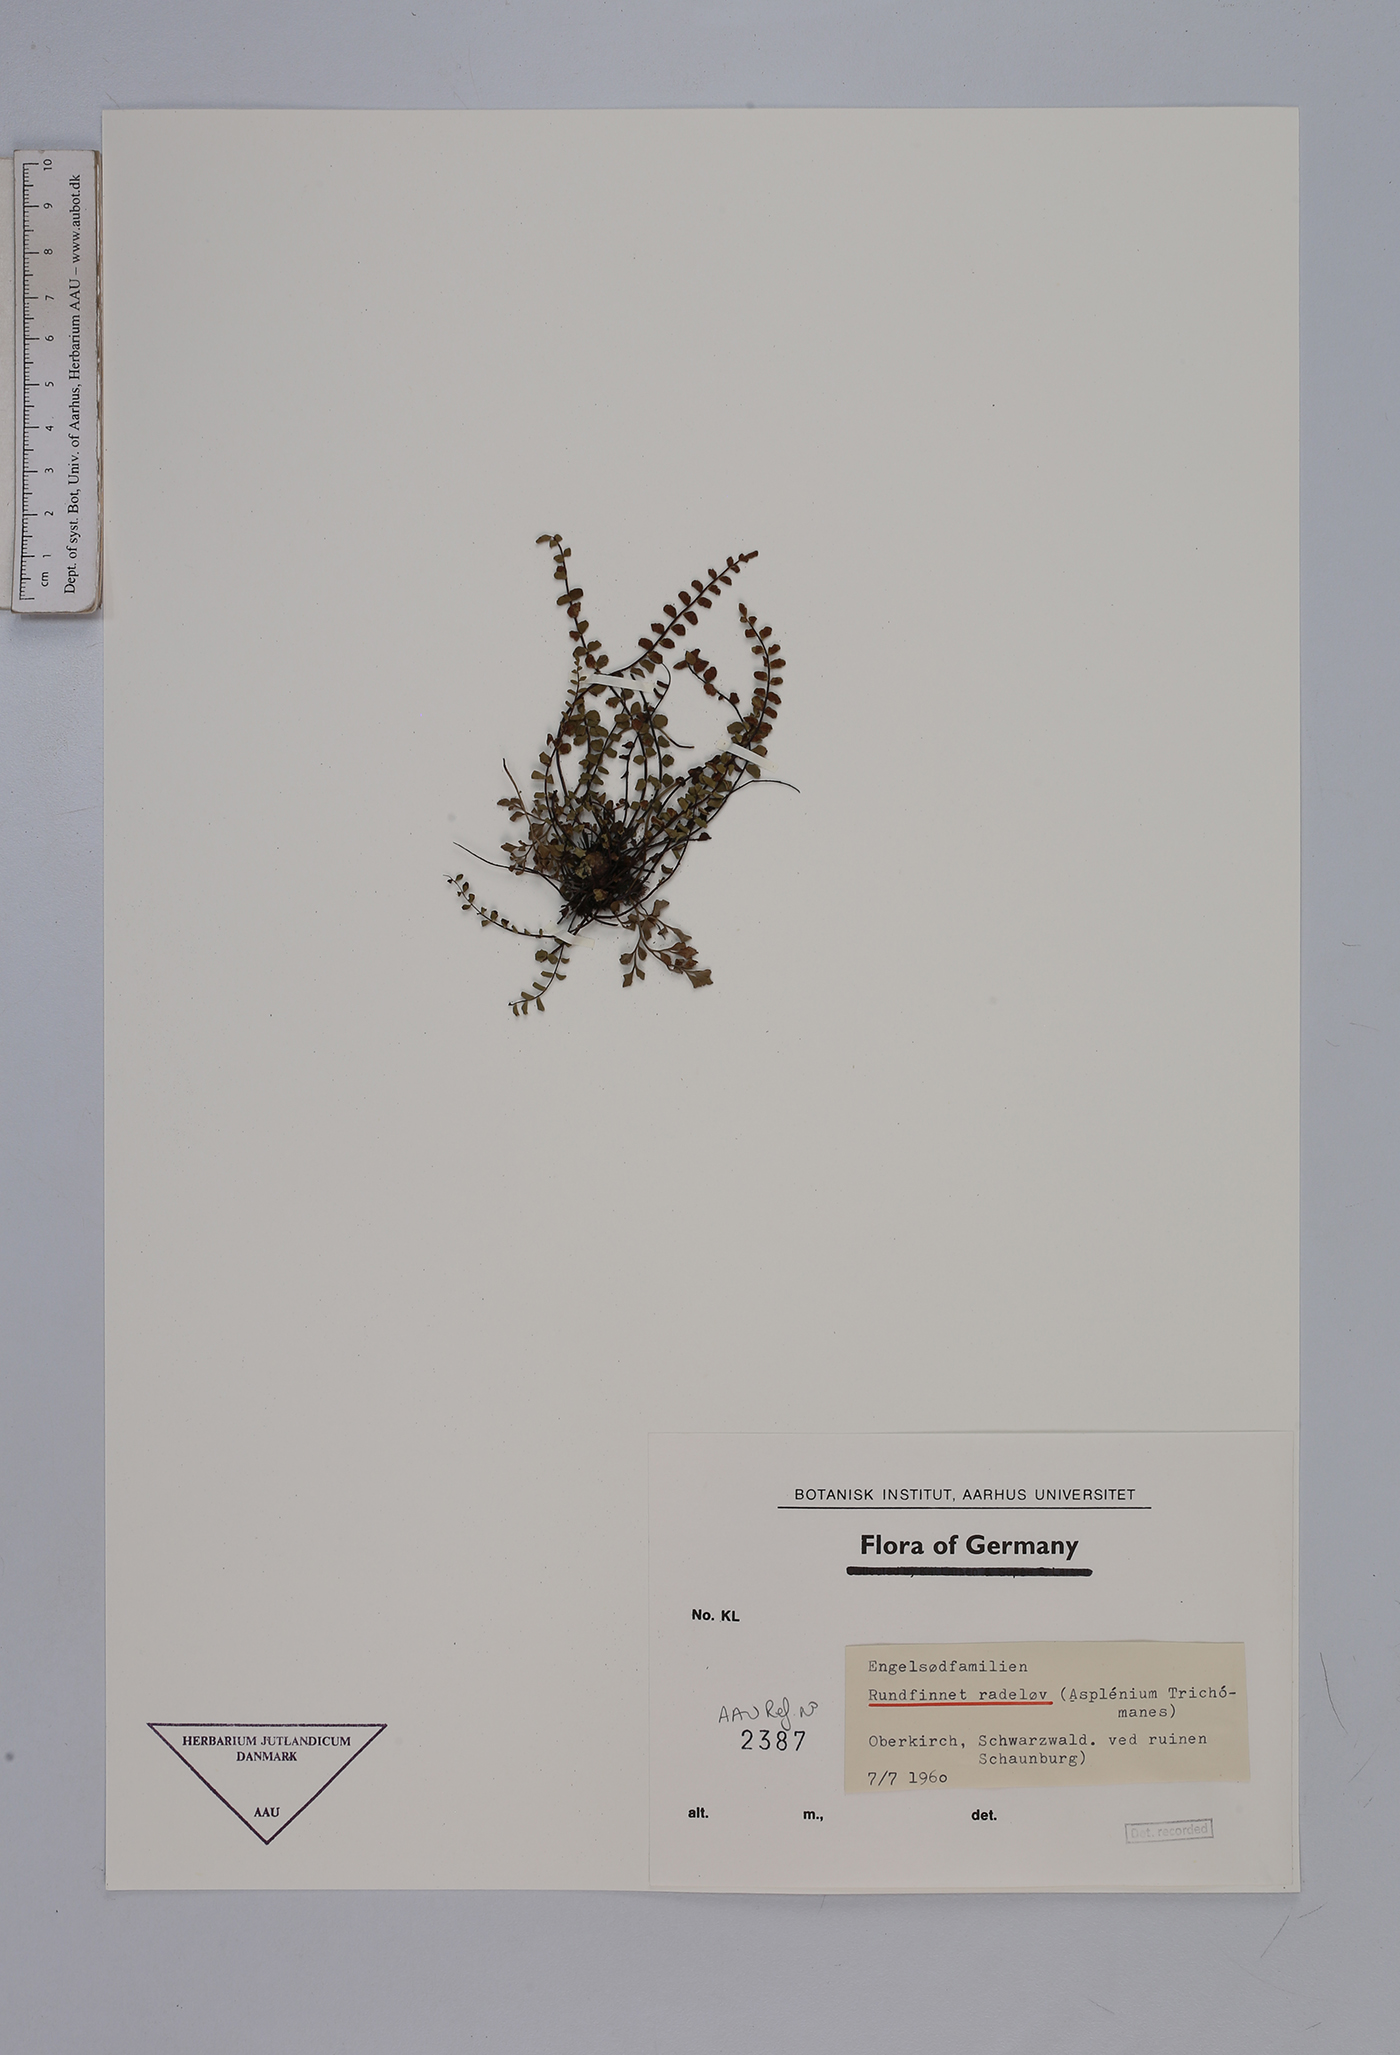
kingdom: Plantae
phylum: Tracheophyta
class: Polypodiopsida
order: Polypodiales
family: Aspleniaceae
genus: Asplenium
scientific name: Asplenium trichomanes
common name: Maidenhair spleenwort
